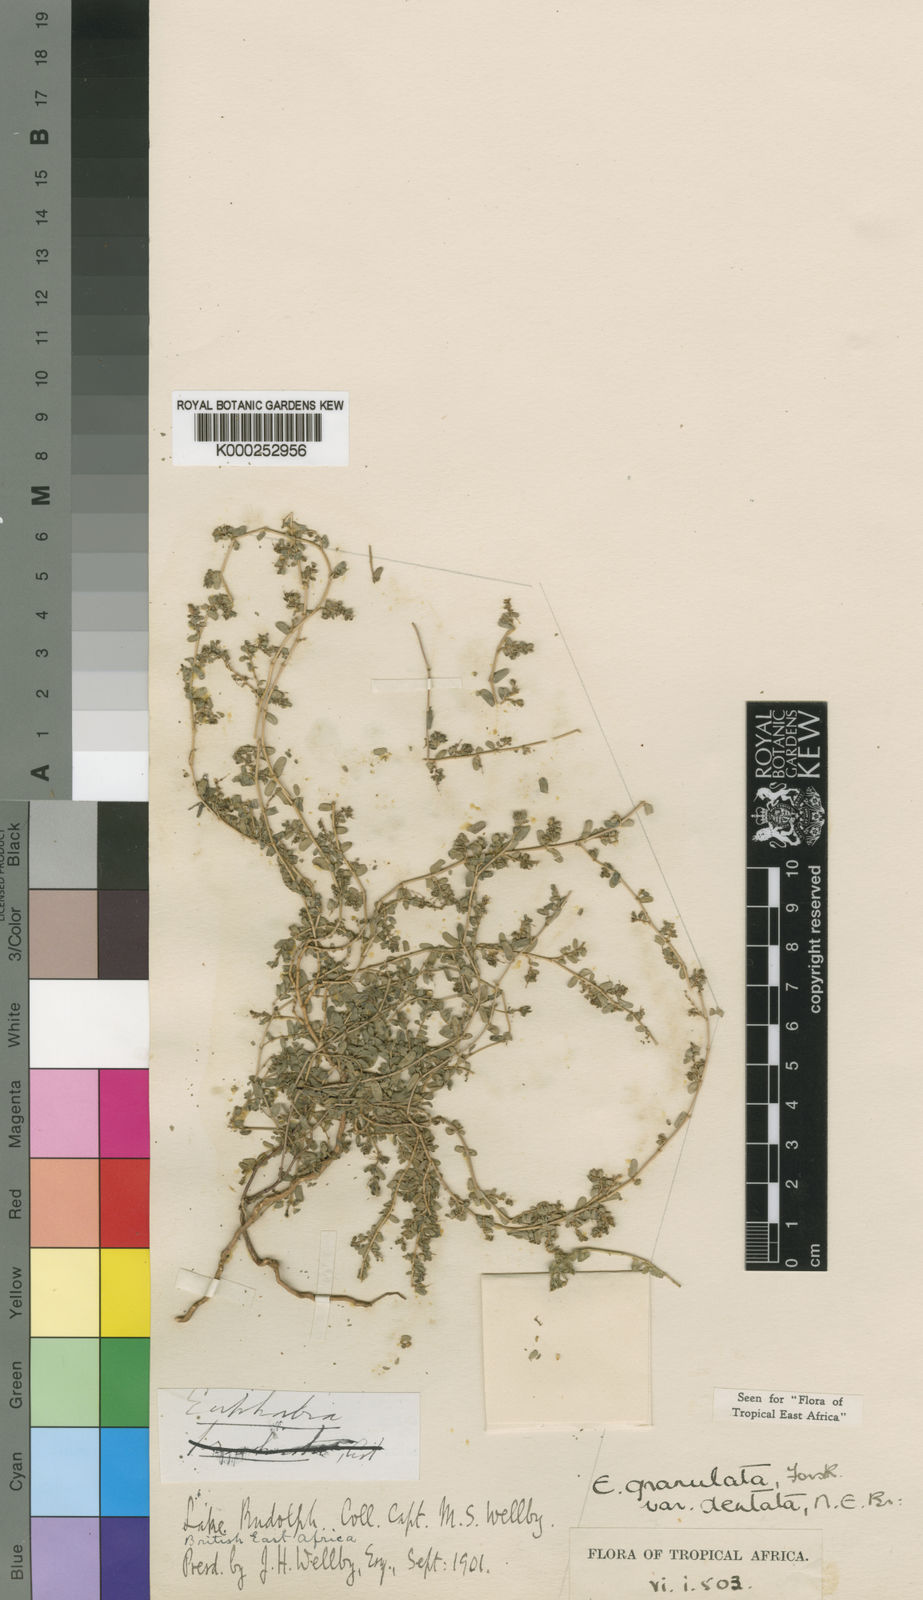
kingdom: Plantae
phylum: Tracheophyta
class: Magnoliopsida
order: Malpighiales
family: Euphorbiaceae
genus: Euphorbia
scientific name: Euphorbia inaequilatera
